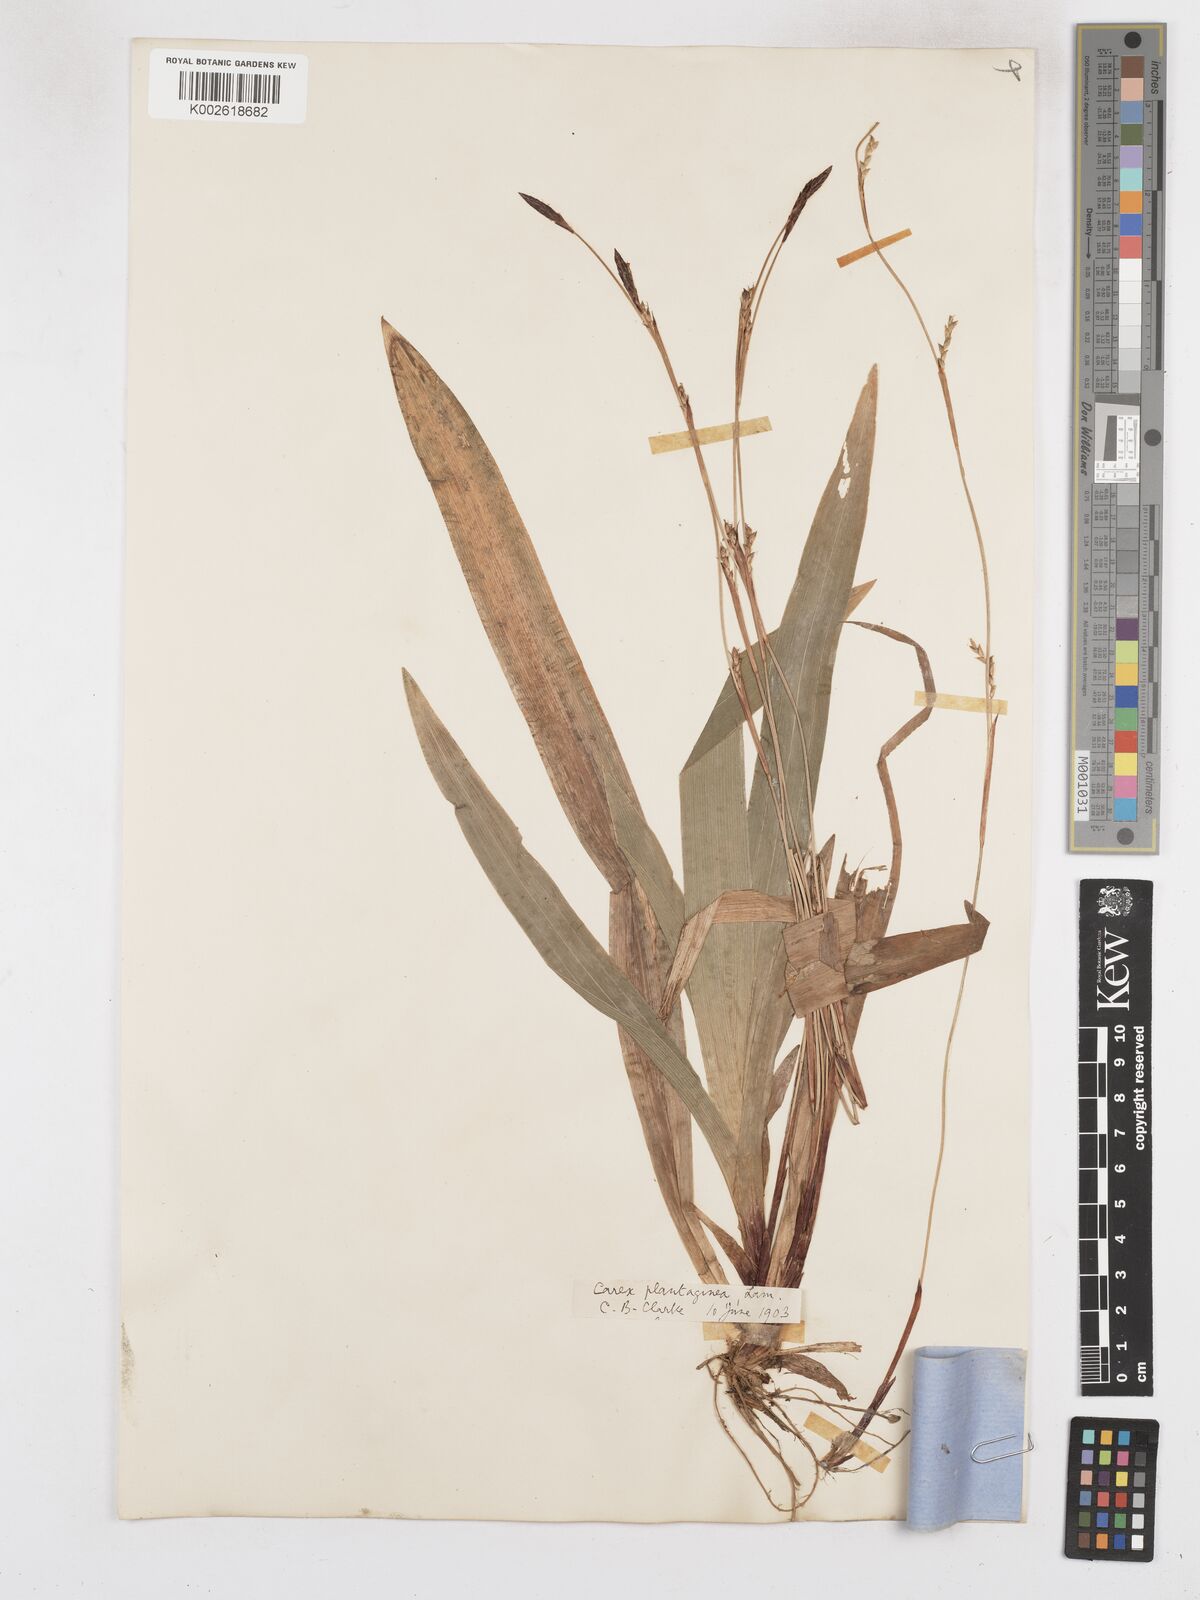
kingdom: Plantae
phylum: Tracheophyta
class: Liliopsida
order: Poales
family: Cyperaceae
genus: Carex
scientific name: Carex plantaginea
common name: Plantain-leaved sedge
